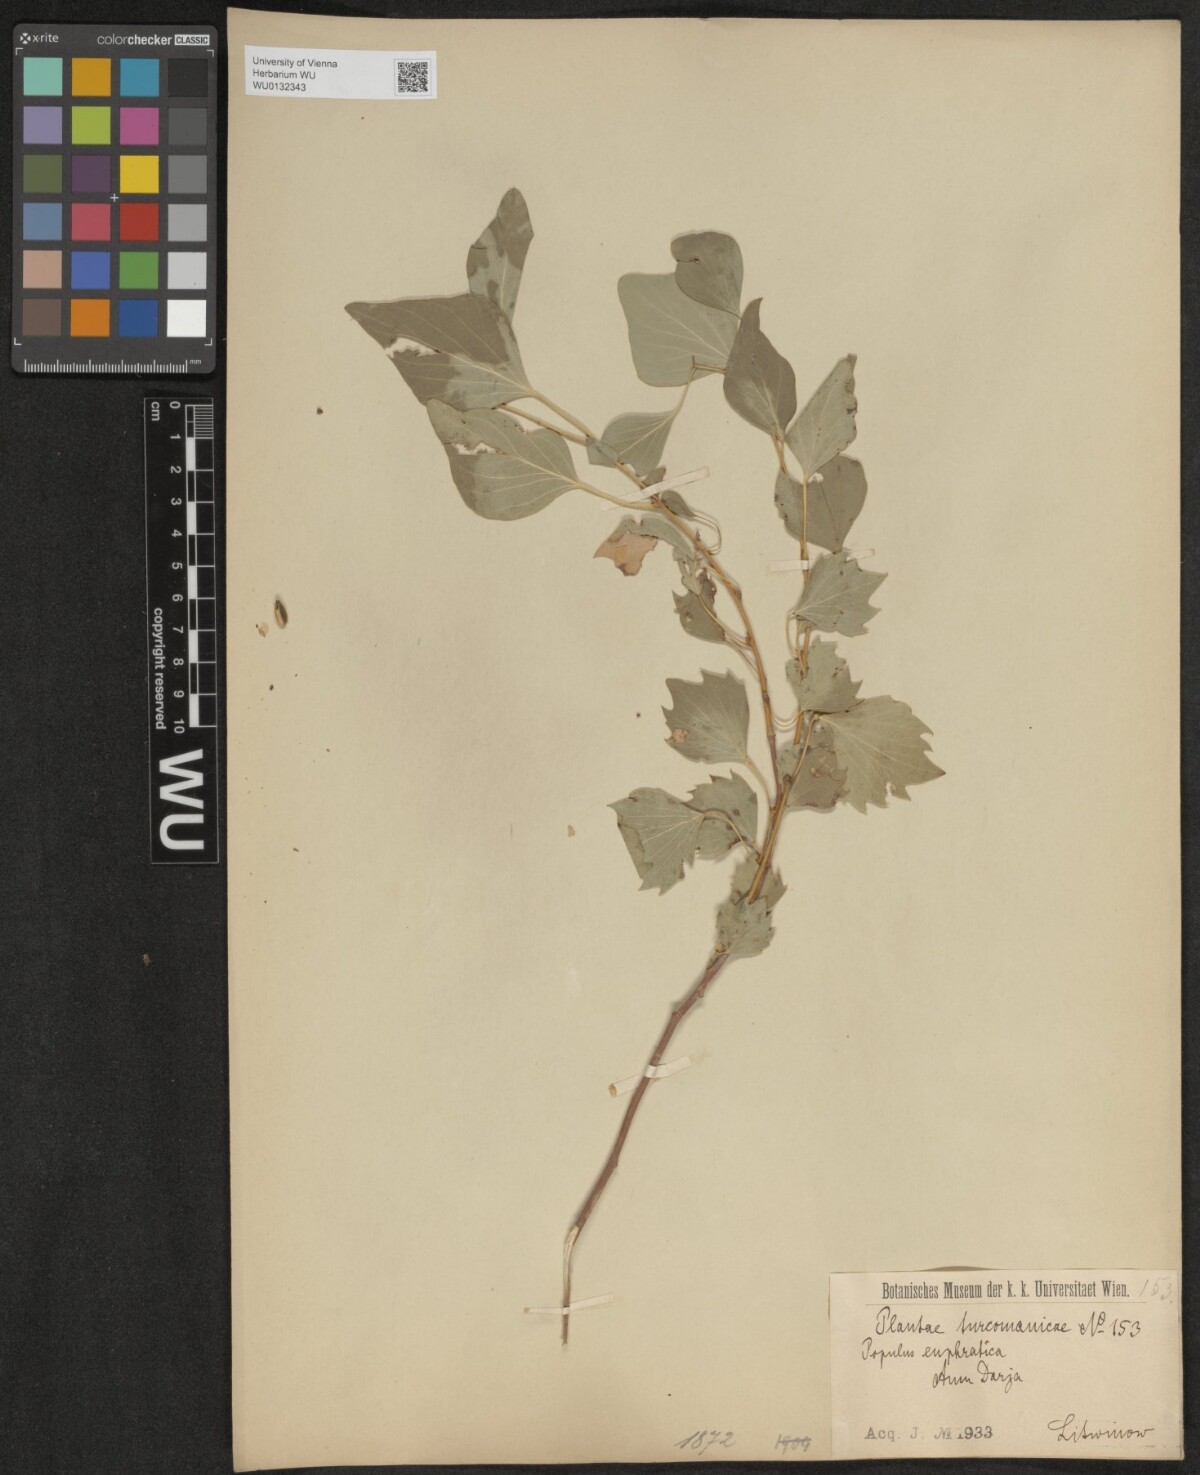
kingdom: Plantae
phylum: Tracheophyta
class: Magnoliopsida
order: Malpighiales
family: Salicaceae
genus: Populus
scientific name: Populus euphratica
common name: Euphrates poplar
